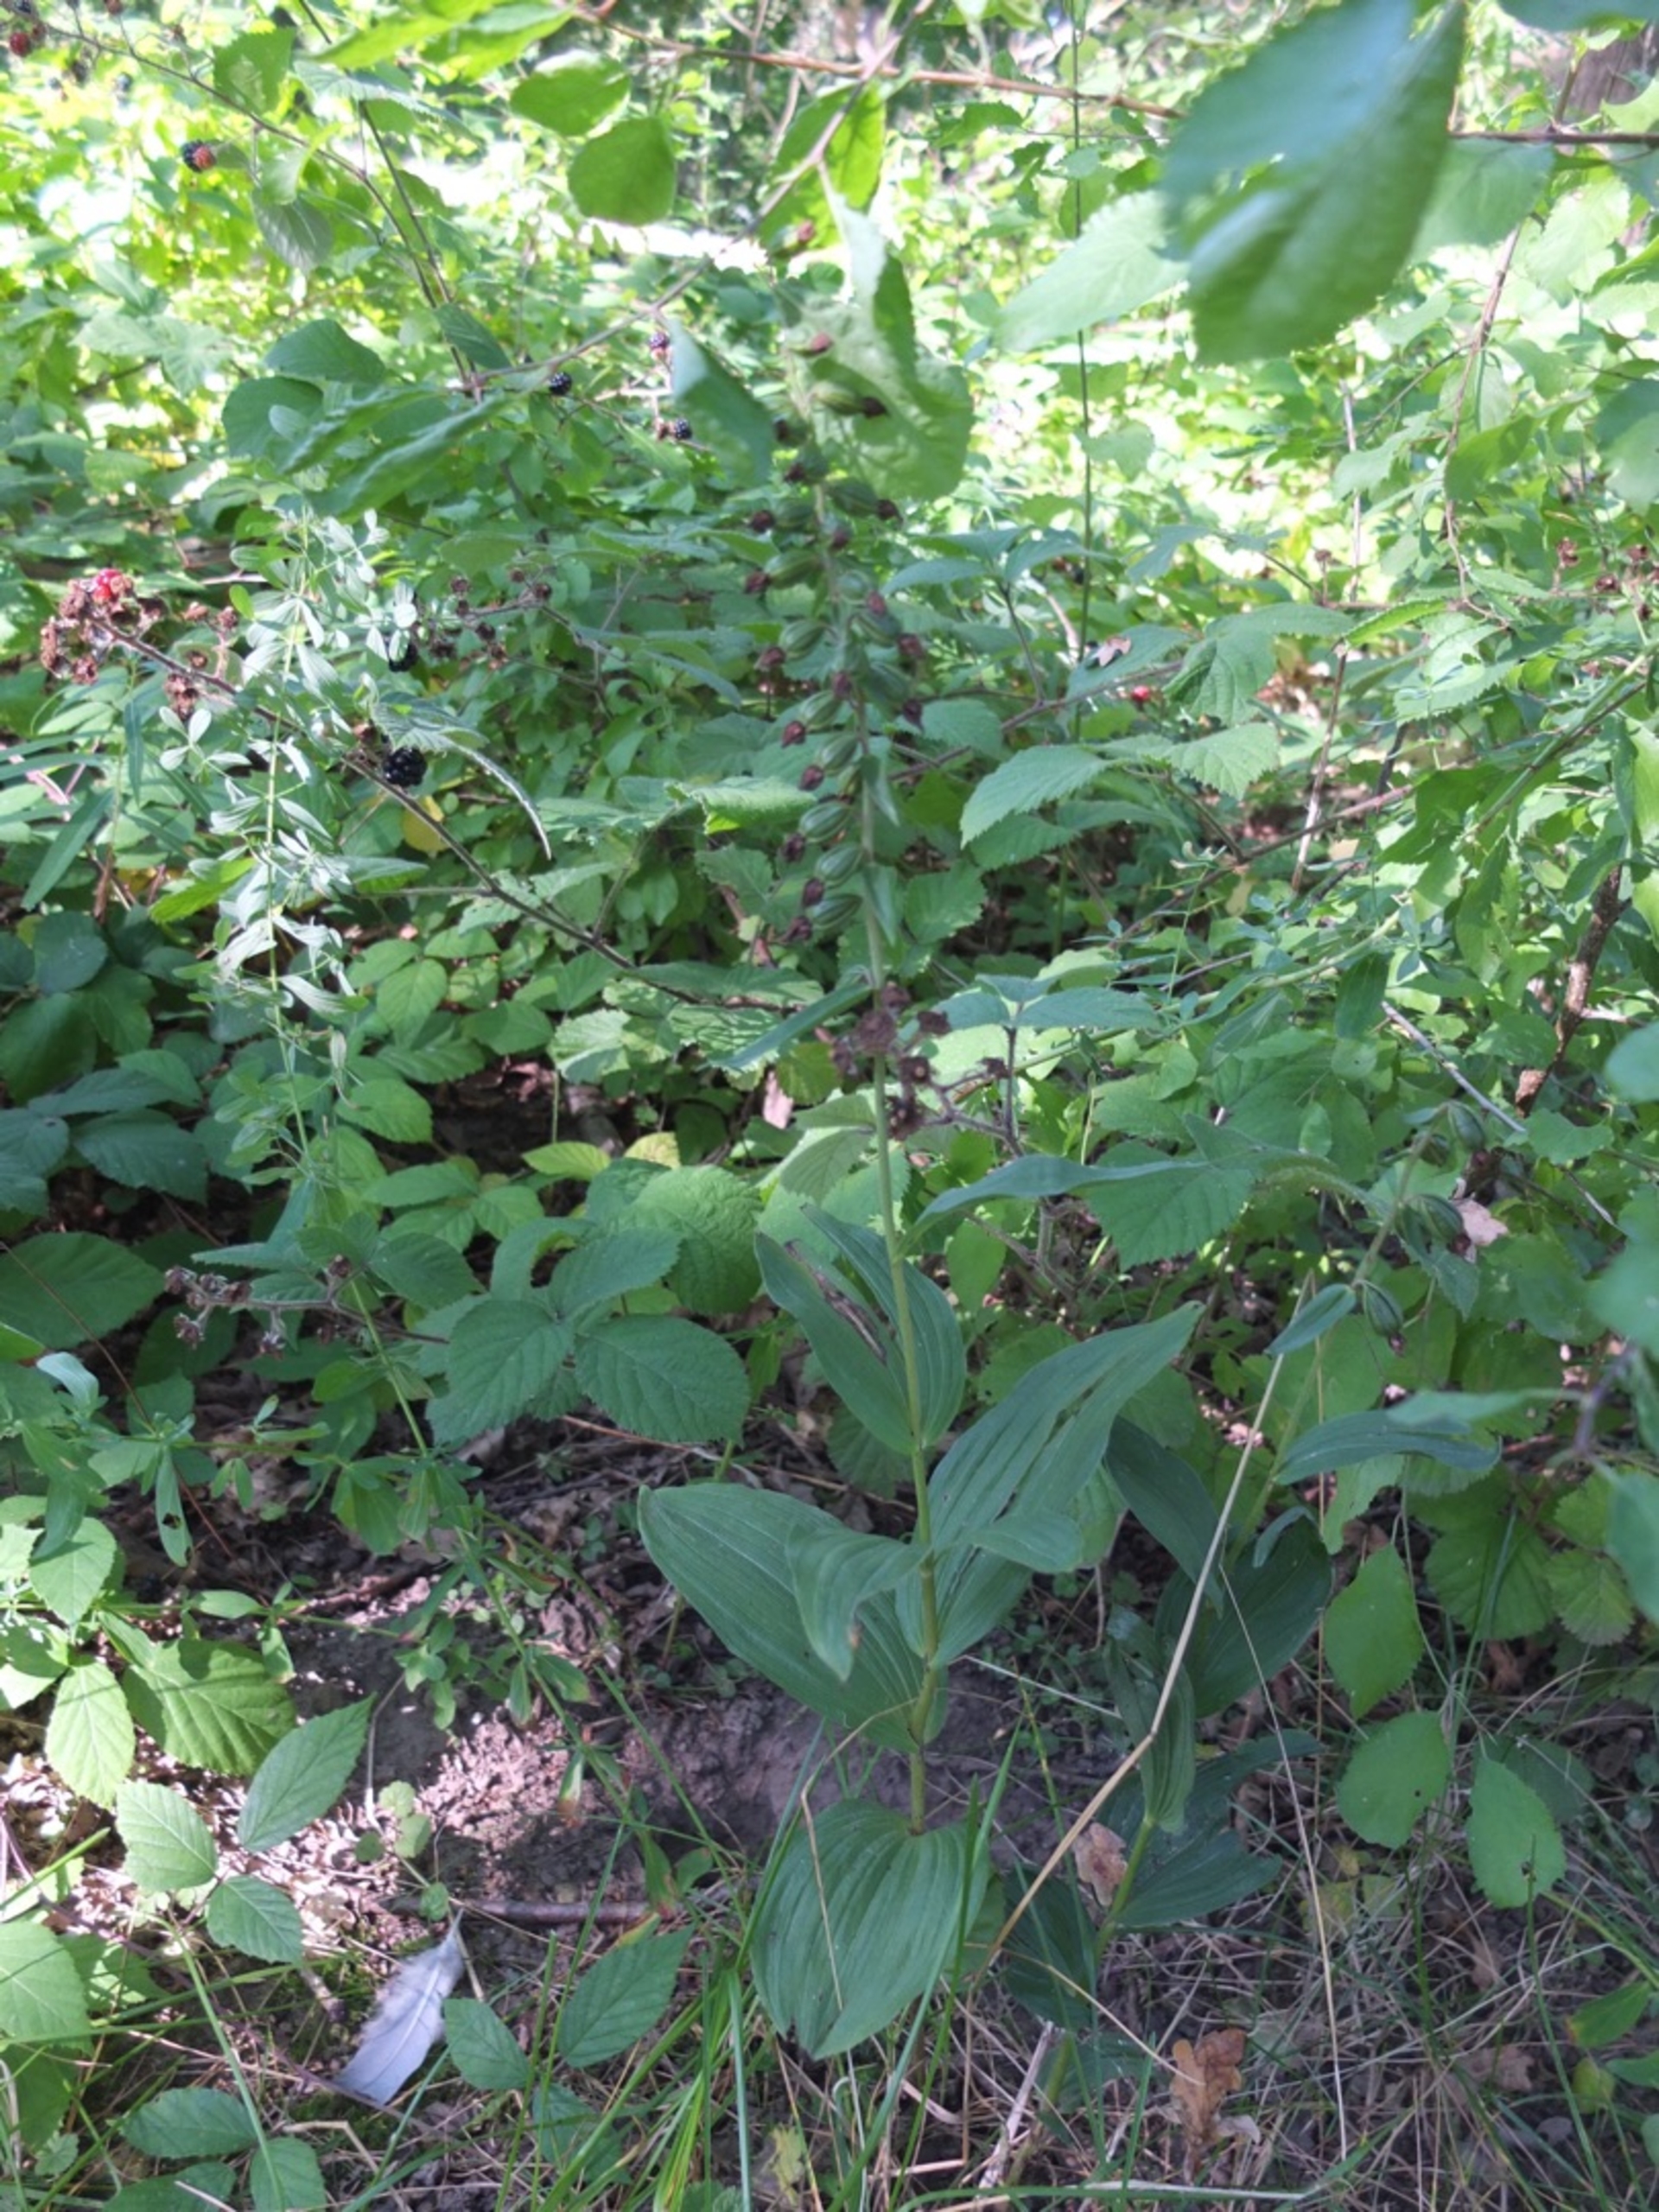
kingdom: Plantae
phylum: Tracheophyta
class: Liliopsida
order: Asparagales
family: Orchidaceae
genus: Epipactis
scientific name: Epipactis helleborine
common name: Skov-hullæbe
